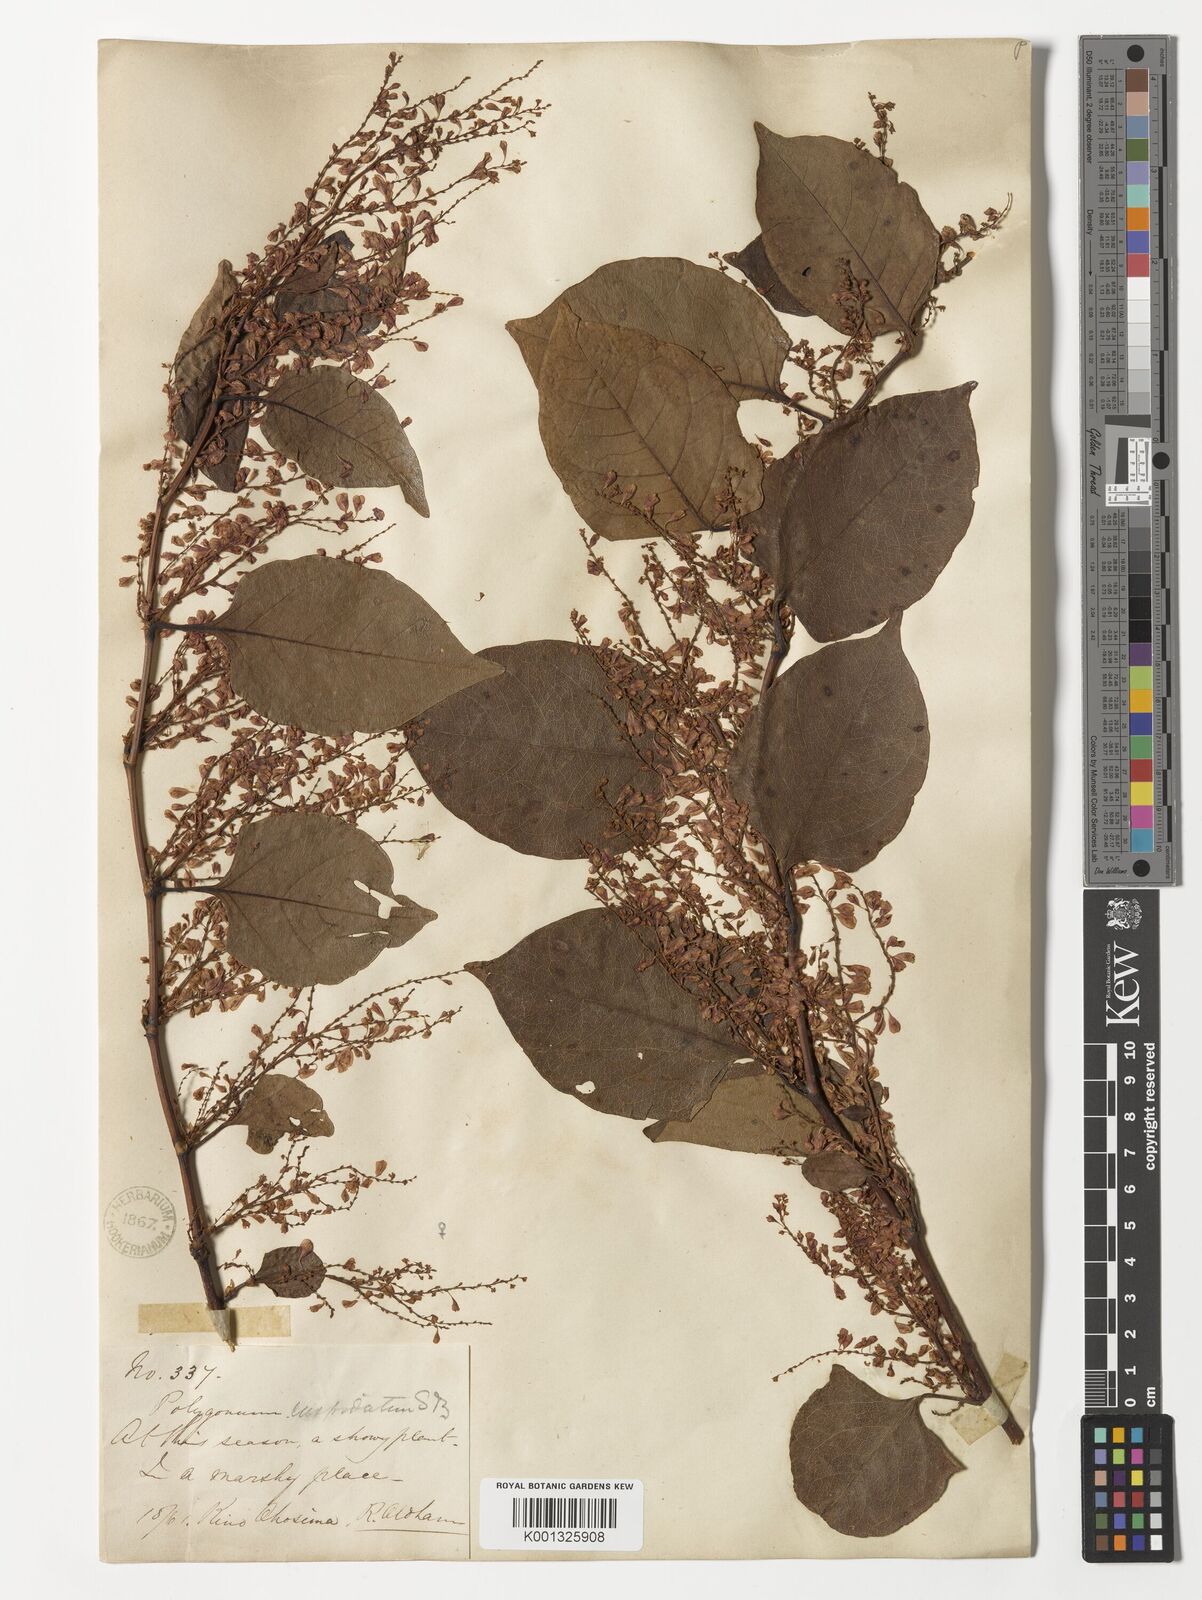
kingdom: Plantae
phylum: Tracheophyta
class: Magnoliopsida
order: Caryophyllales
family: Polygonaceae
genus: Reynoutria
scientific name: Reynoutria japonica
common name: Japanese knotweed
